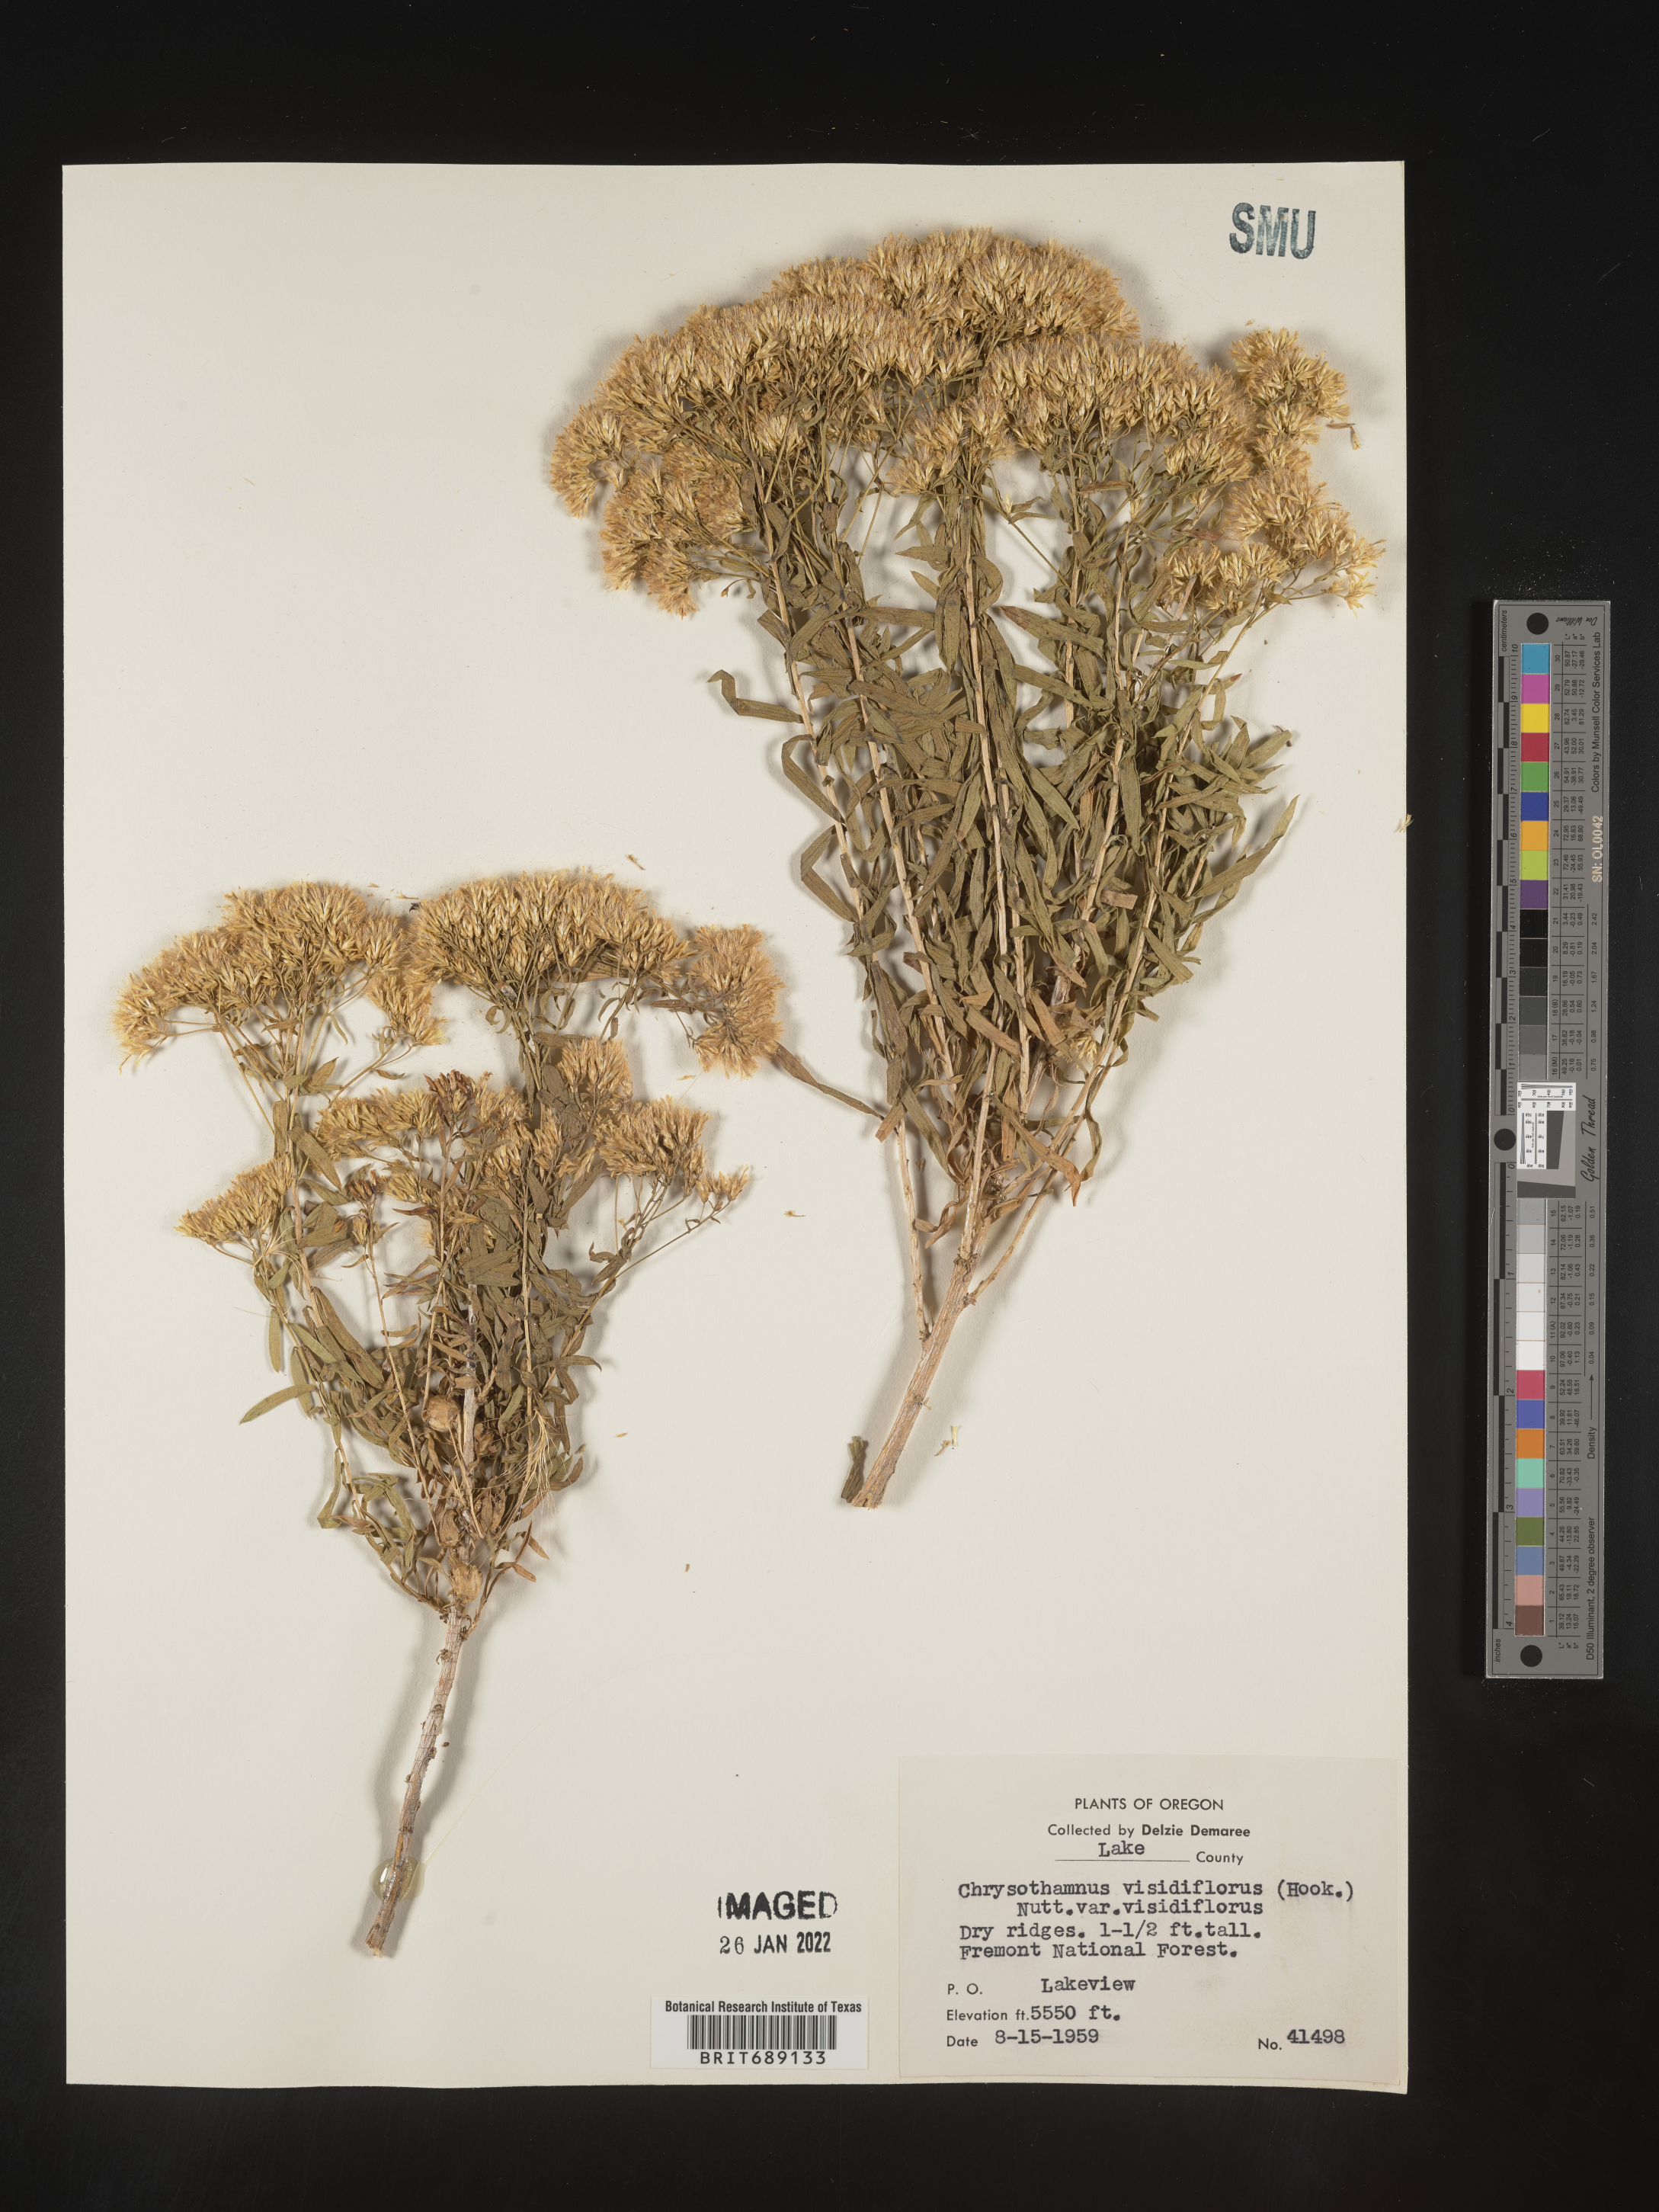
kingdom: Plantae
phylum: Tracheophyta
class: Magnoliopsida
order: Asterales
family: Asteraceae
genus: Chrysothamnus
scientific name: Chrysothamnus viscidiflorus
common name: Yellow rabbitbrush
